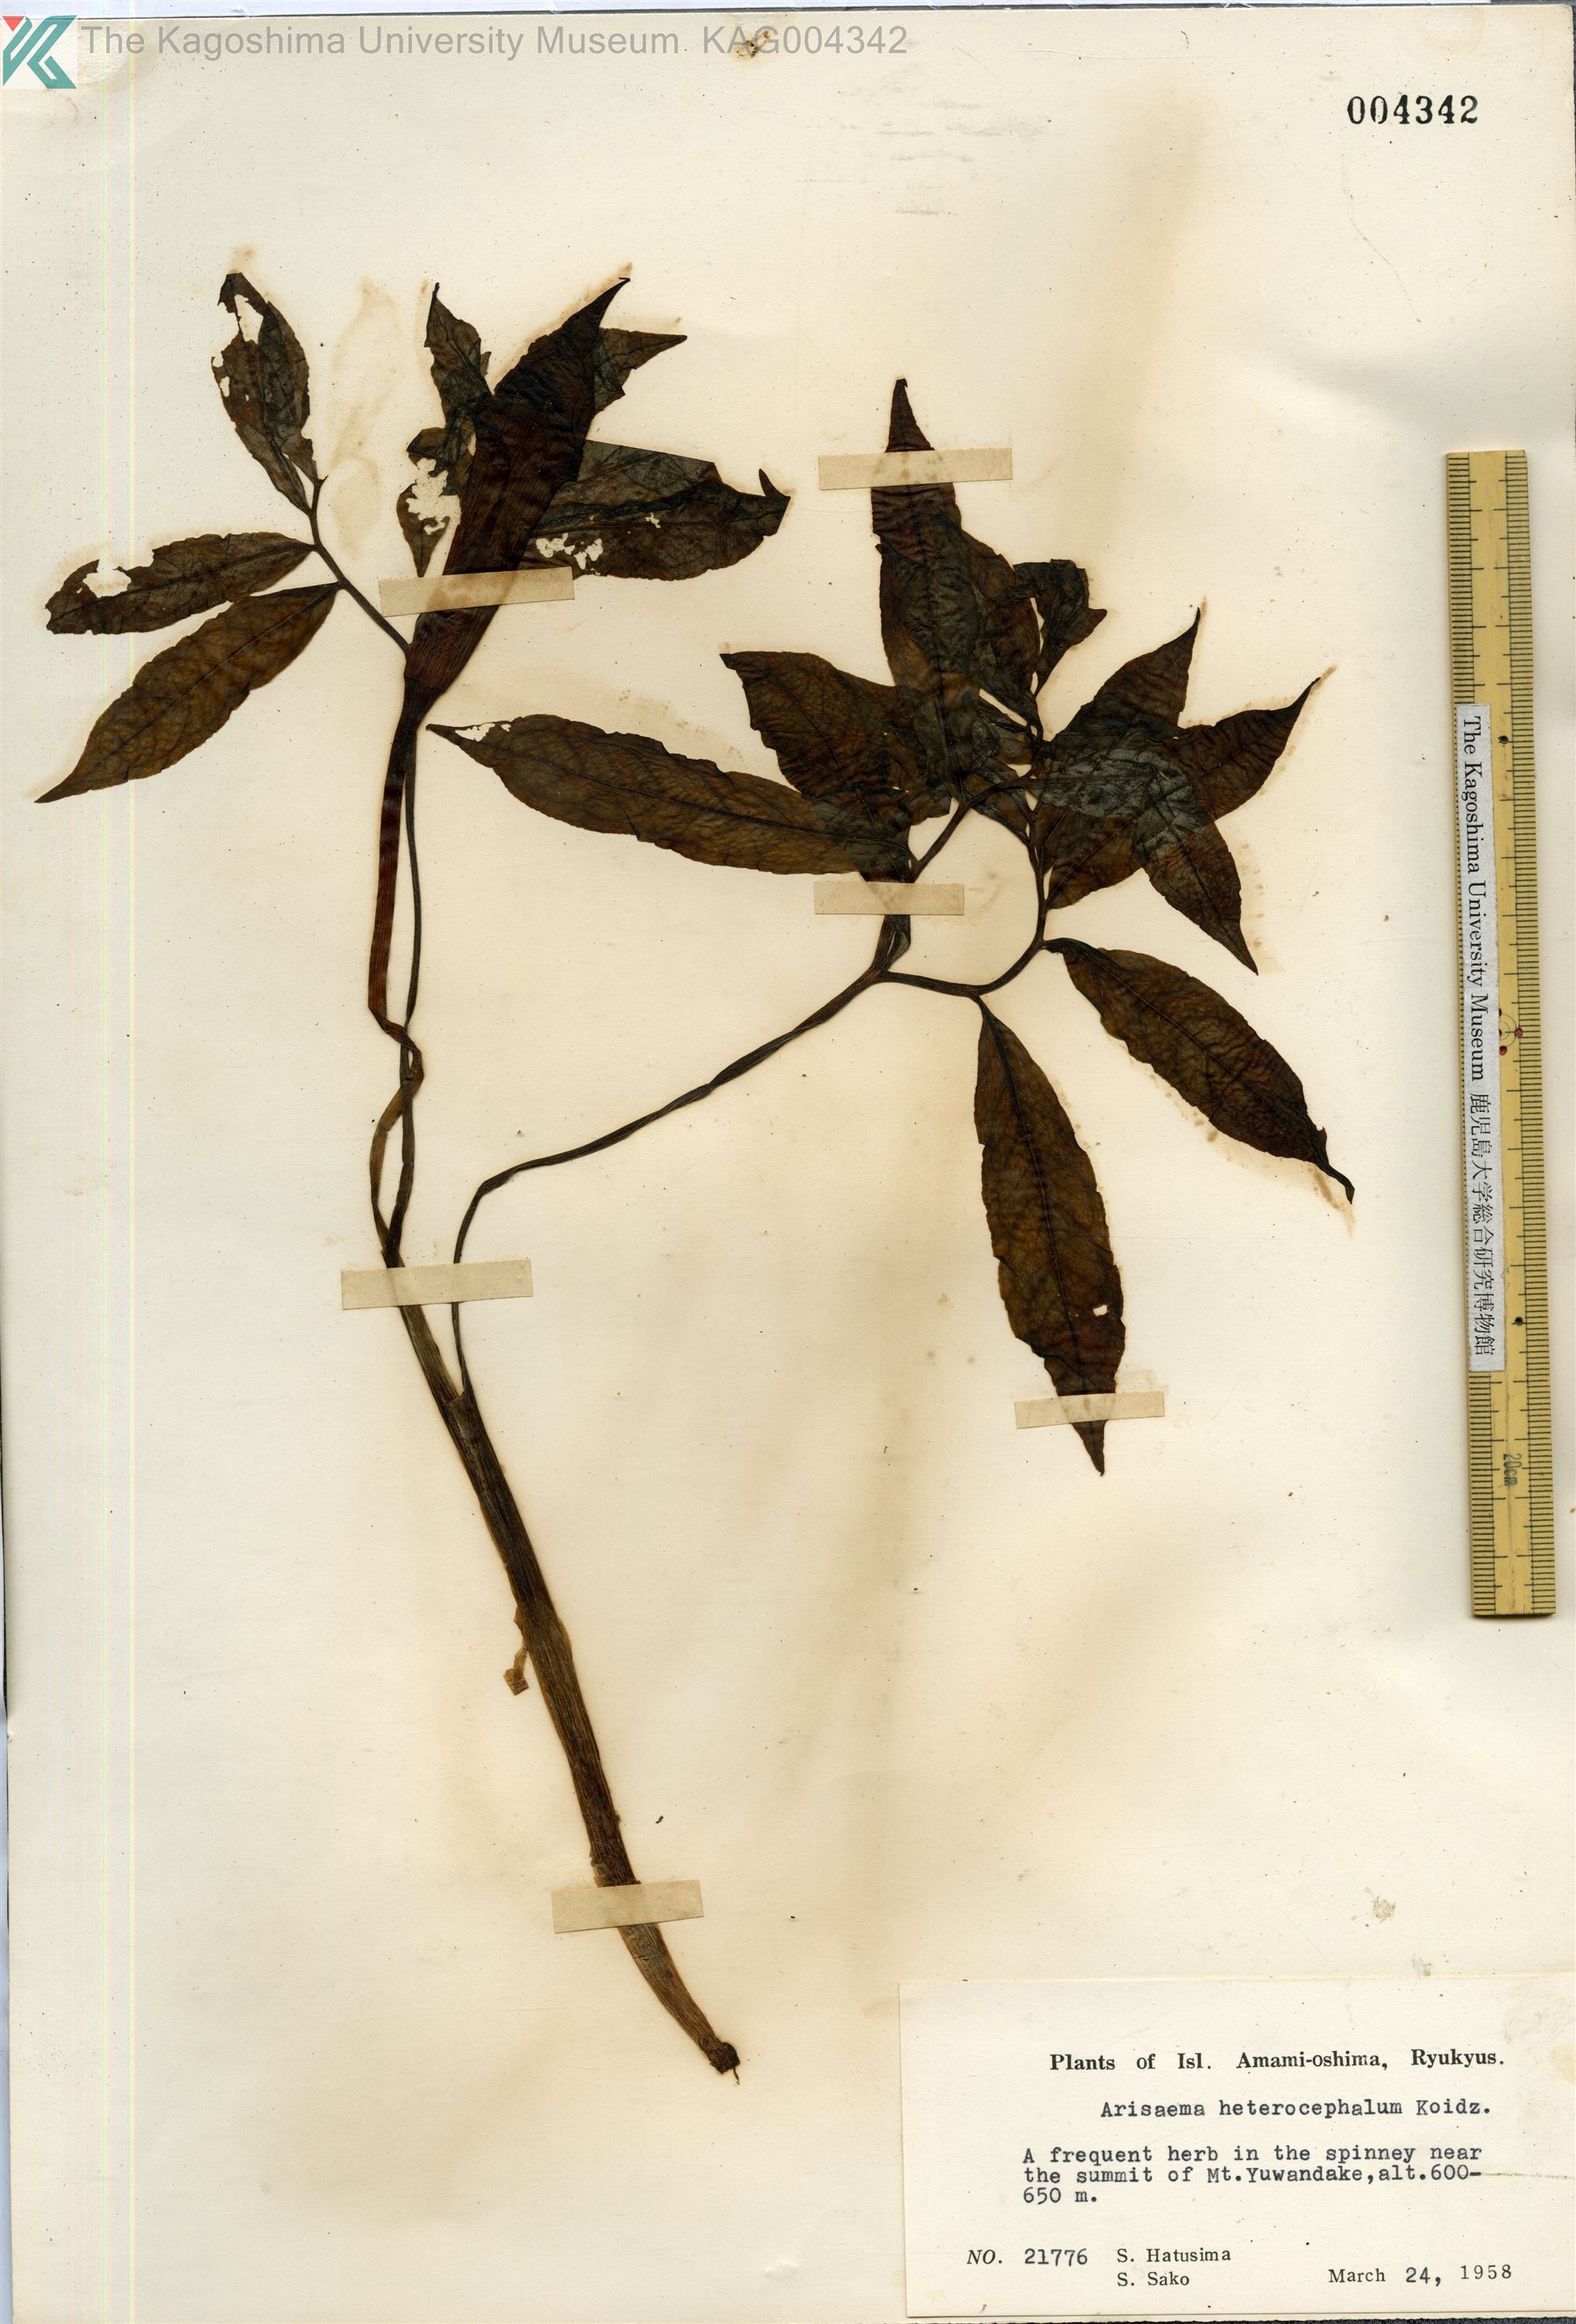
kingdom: Plantae
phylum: Tracheophyta
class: Liliopsida
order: Alismatales
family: Araceae
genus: Arisaema
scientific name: Arisaema heterocephalum
